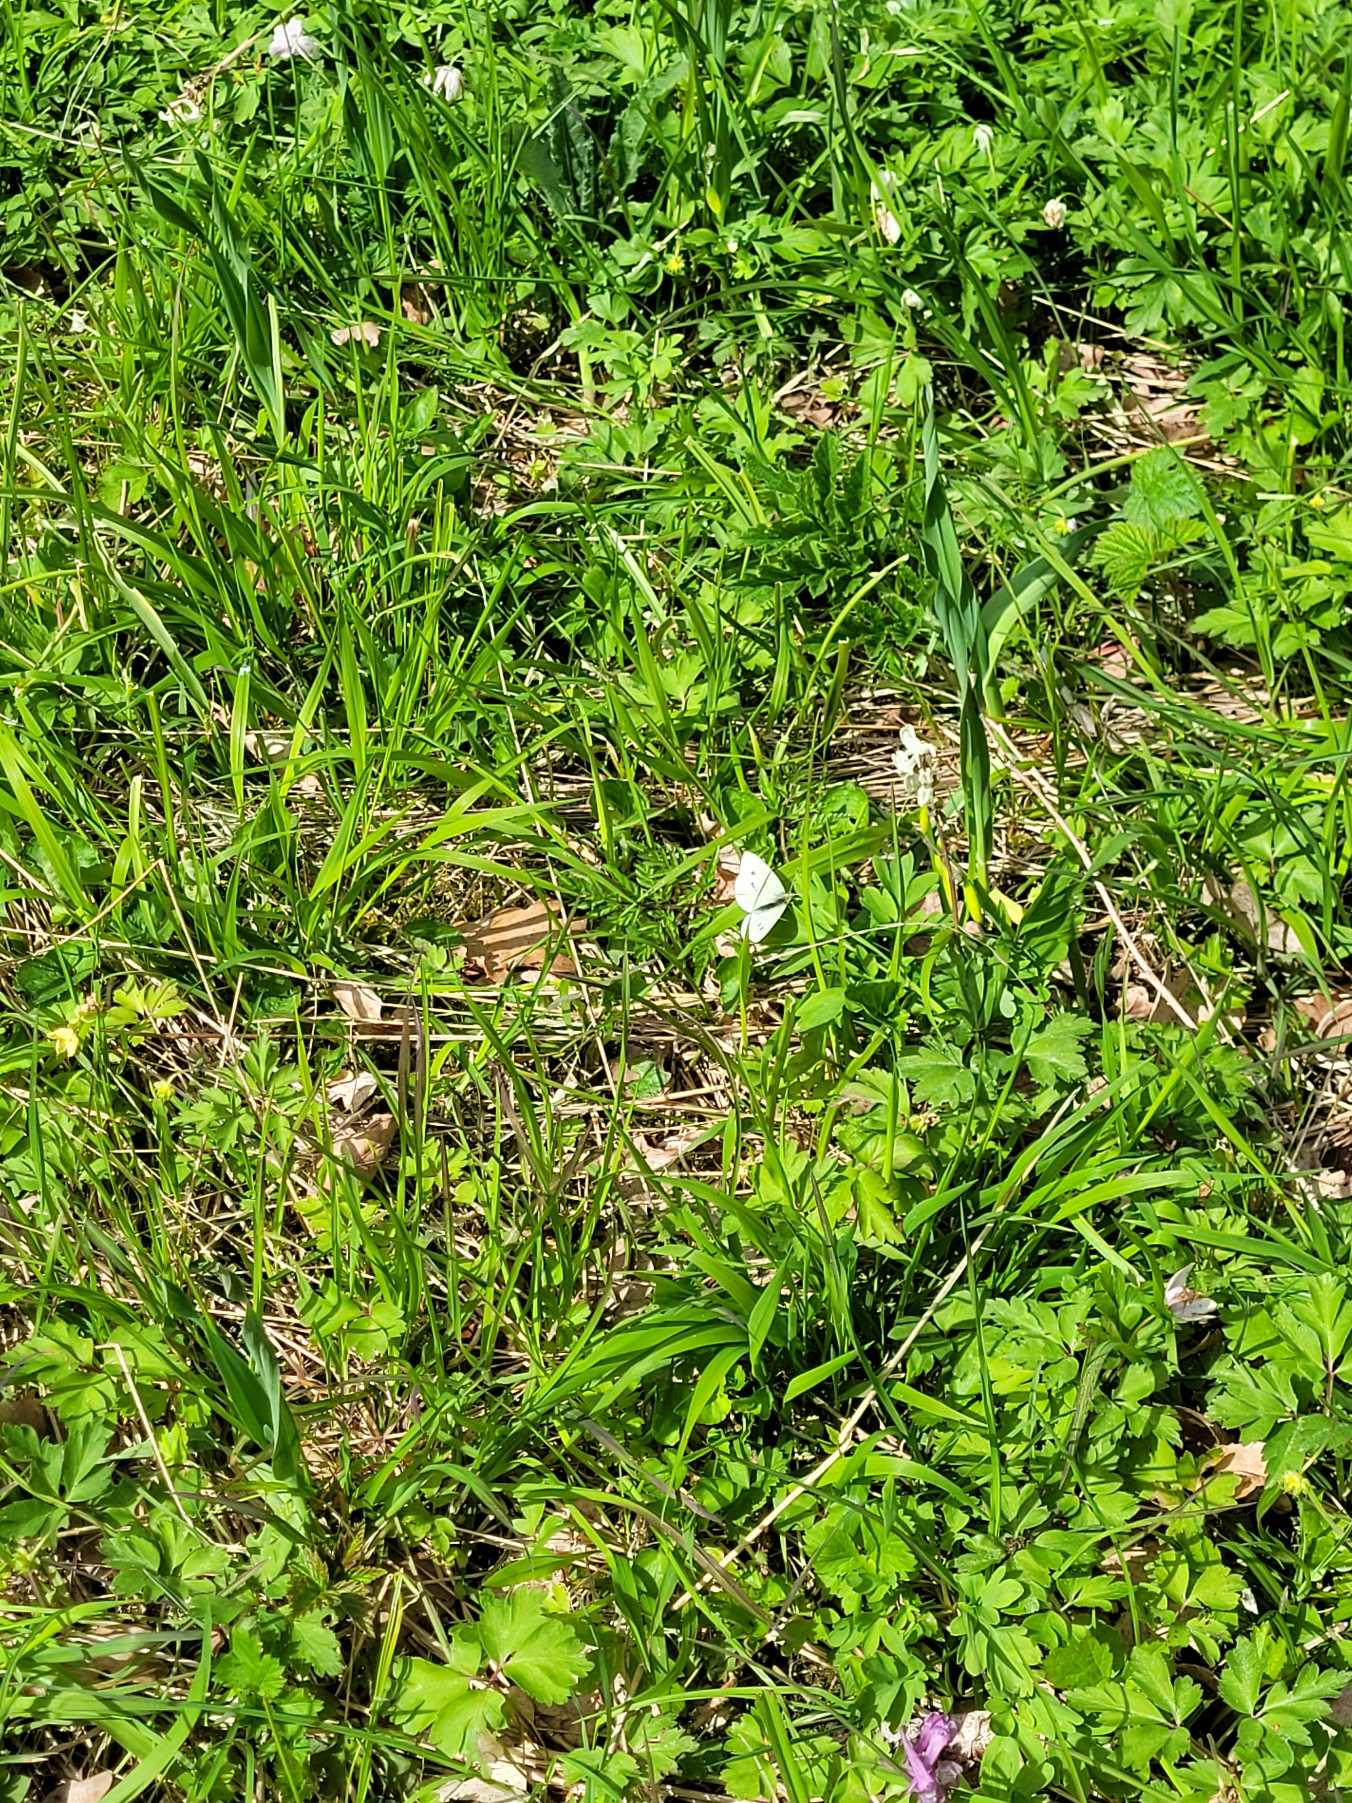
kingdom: Animalia
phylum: Arthropoda
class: Insecta
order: Lepidoptera
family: Pieridae
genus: Pieris
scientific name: Pieris rapae
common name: Lille kålsommerfugl
